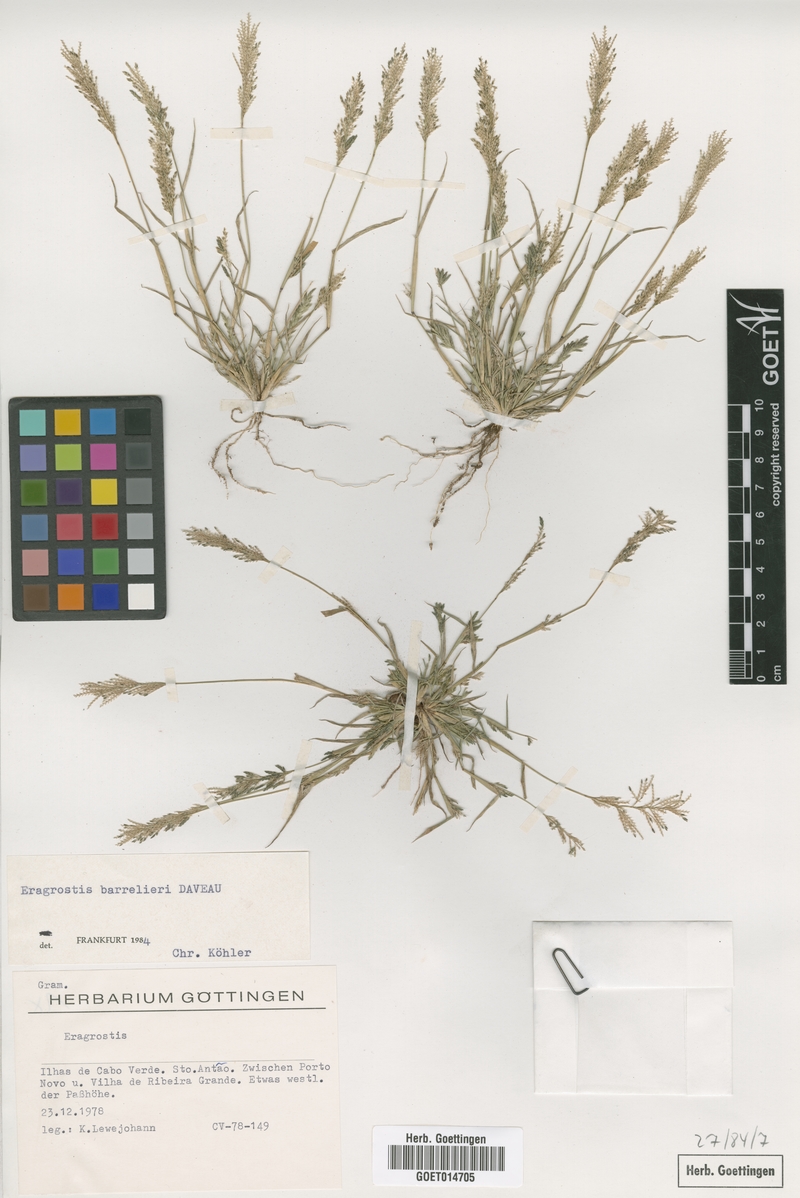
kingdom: Plantae
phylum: Tracheophyta
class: Liliopsida
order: Poales
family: Poaceae
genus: Eragrostis
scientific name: Eragrostis barrelieri
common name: Mediterranean lovegrass
